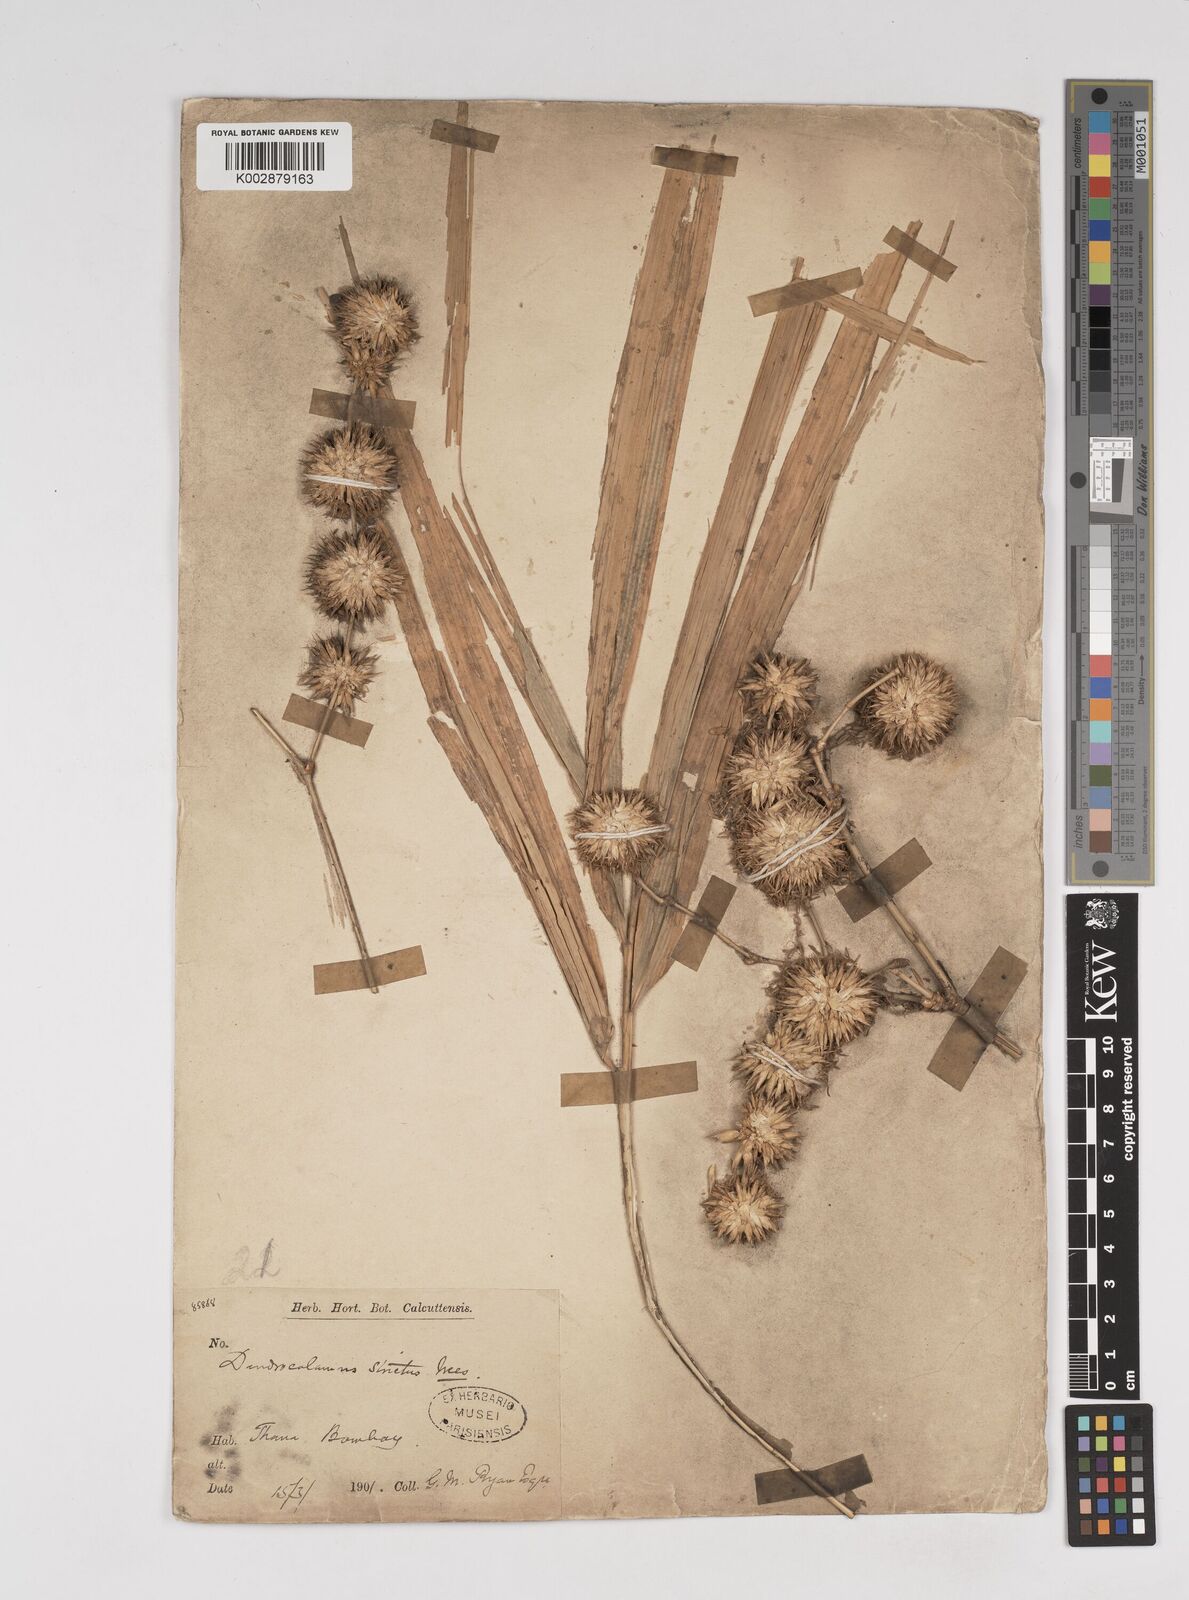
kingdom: Plantae
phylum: Tracheophyta
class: Liliopsida
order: Poales
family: Poaceae
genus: Dendrocalamus
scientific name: Dendrocalamus strictus
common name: Male bamboo
